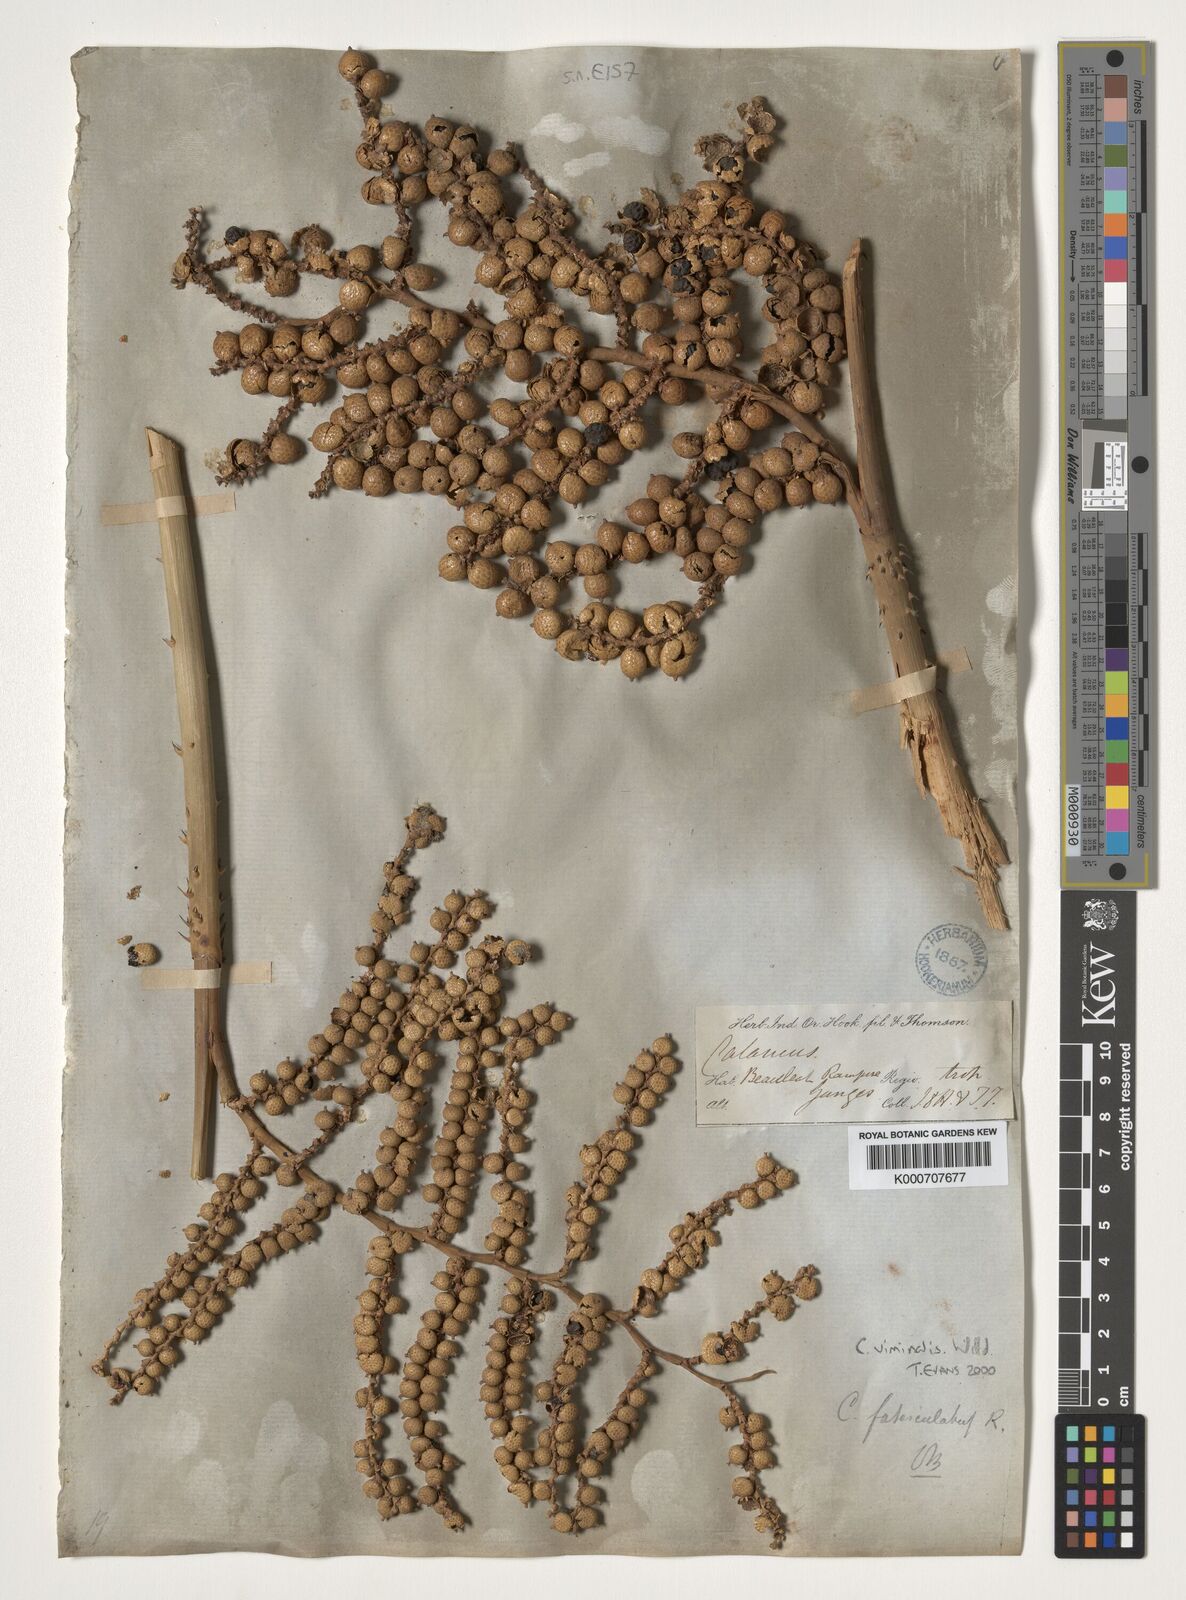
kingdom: Plantae
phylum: Tracheophyta
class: Liliopsida
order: Arecales
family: Arecaceae
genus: Calamus
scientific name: Calamus viminalis
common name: Osier-like rattan palm
